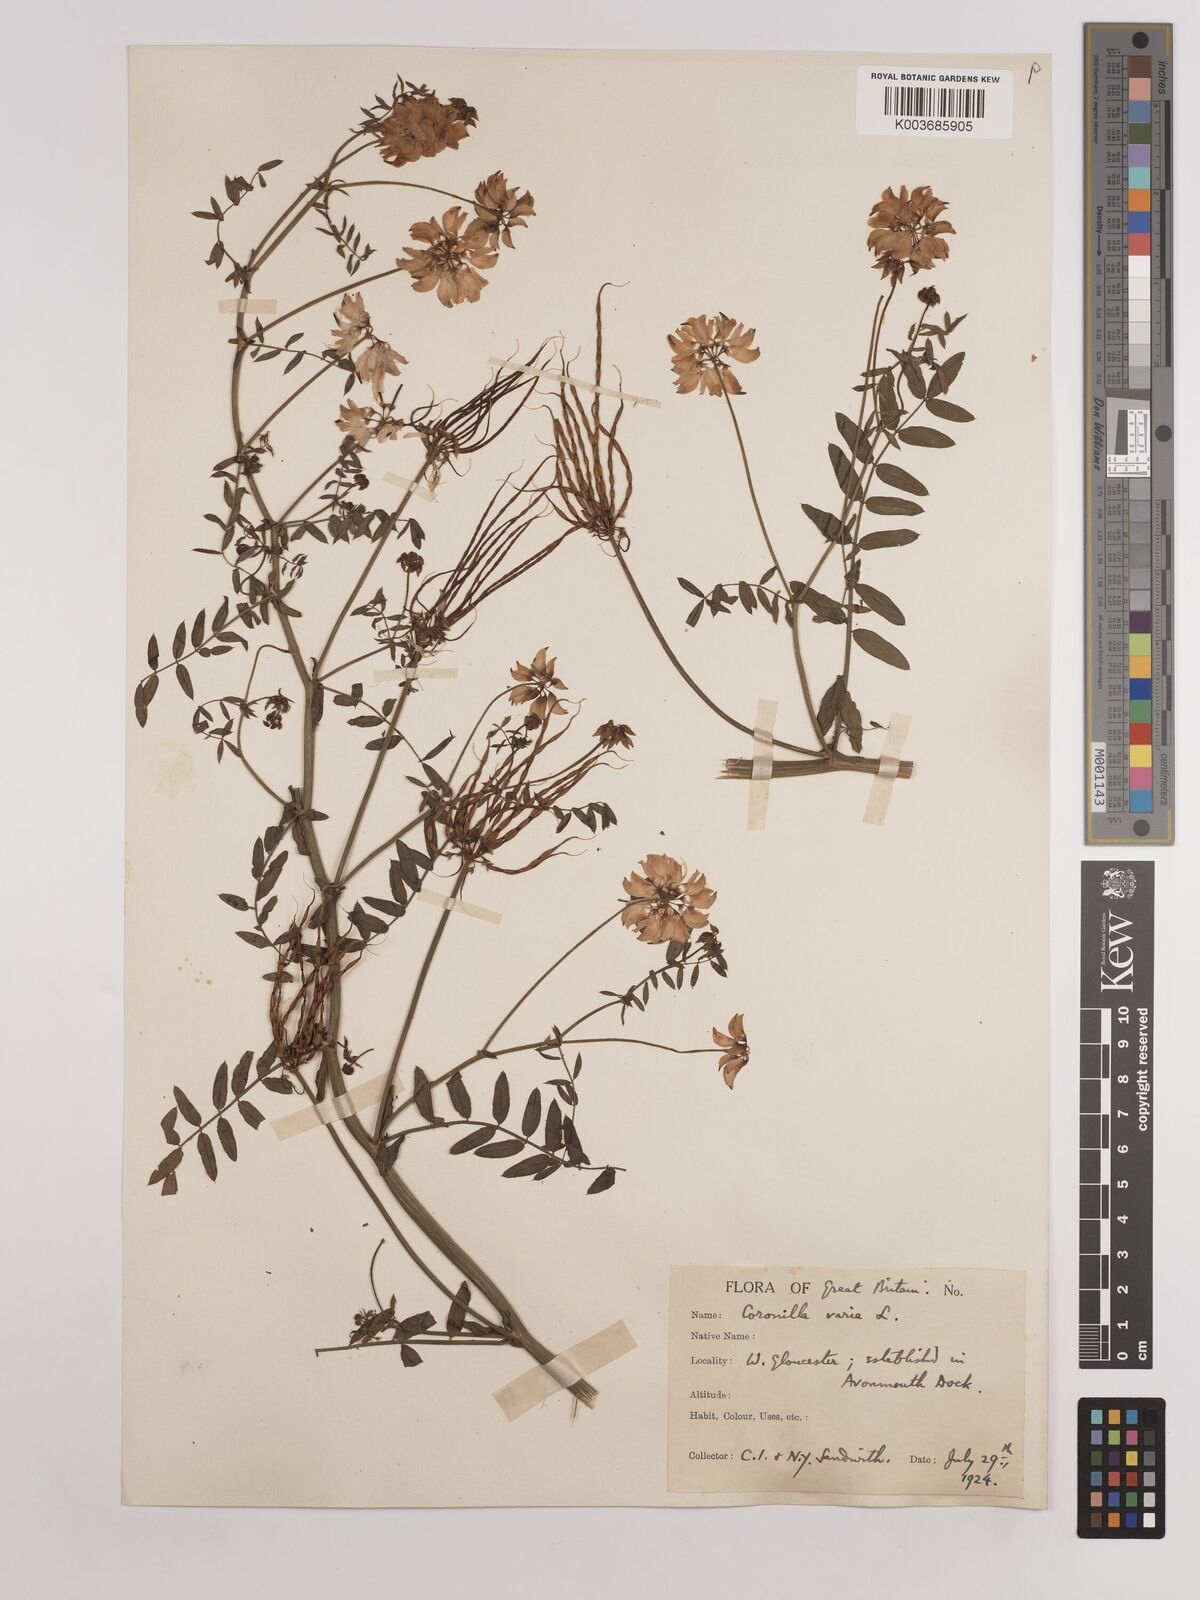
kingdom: Plantae
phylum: Tracheophyta
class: Magnoliopsida
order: Fabales
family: Fabaceae
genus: Coronilla
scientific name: Coronilla varia
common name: Crownvetch
